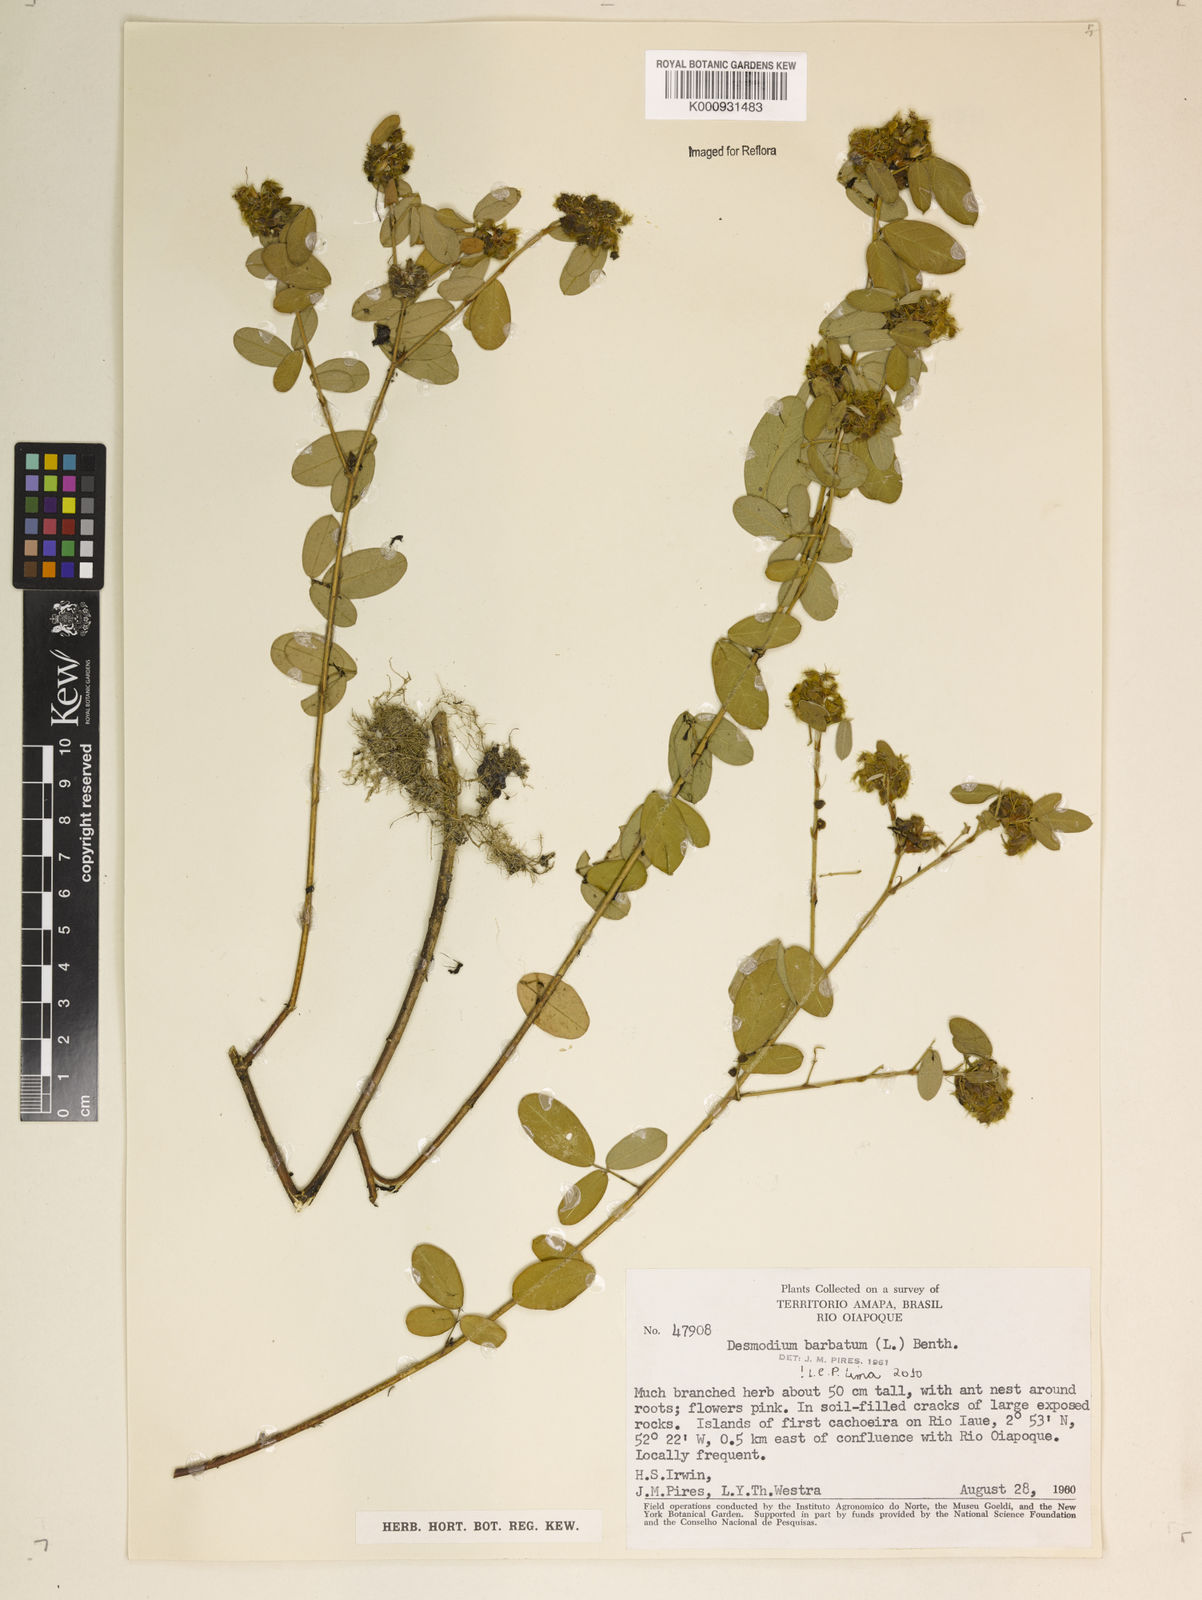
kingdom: Plantae
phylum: Tracheophyta
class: Magnoliopsida
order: Fabales
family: Fabaceae
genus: Grona
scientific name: Grona barbata
